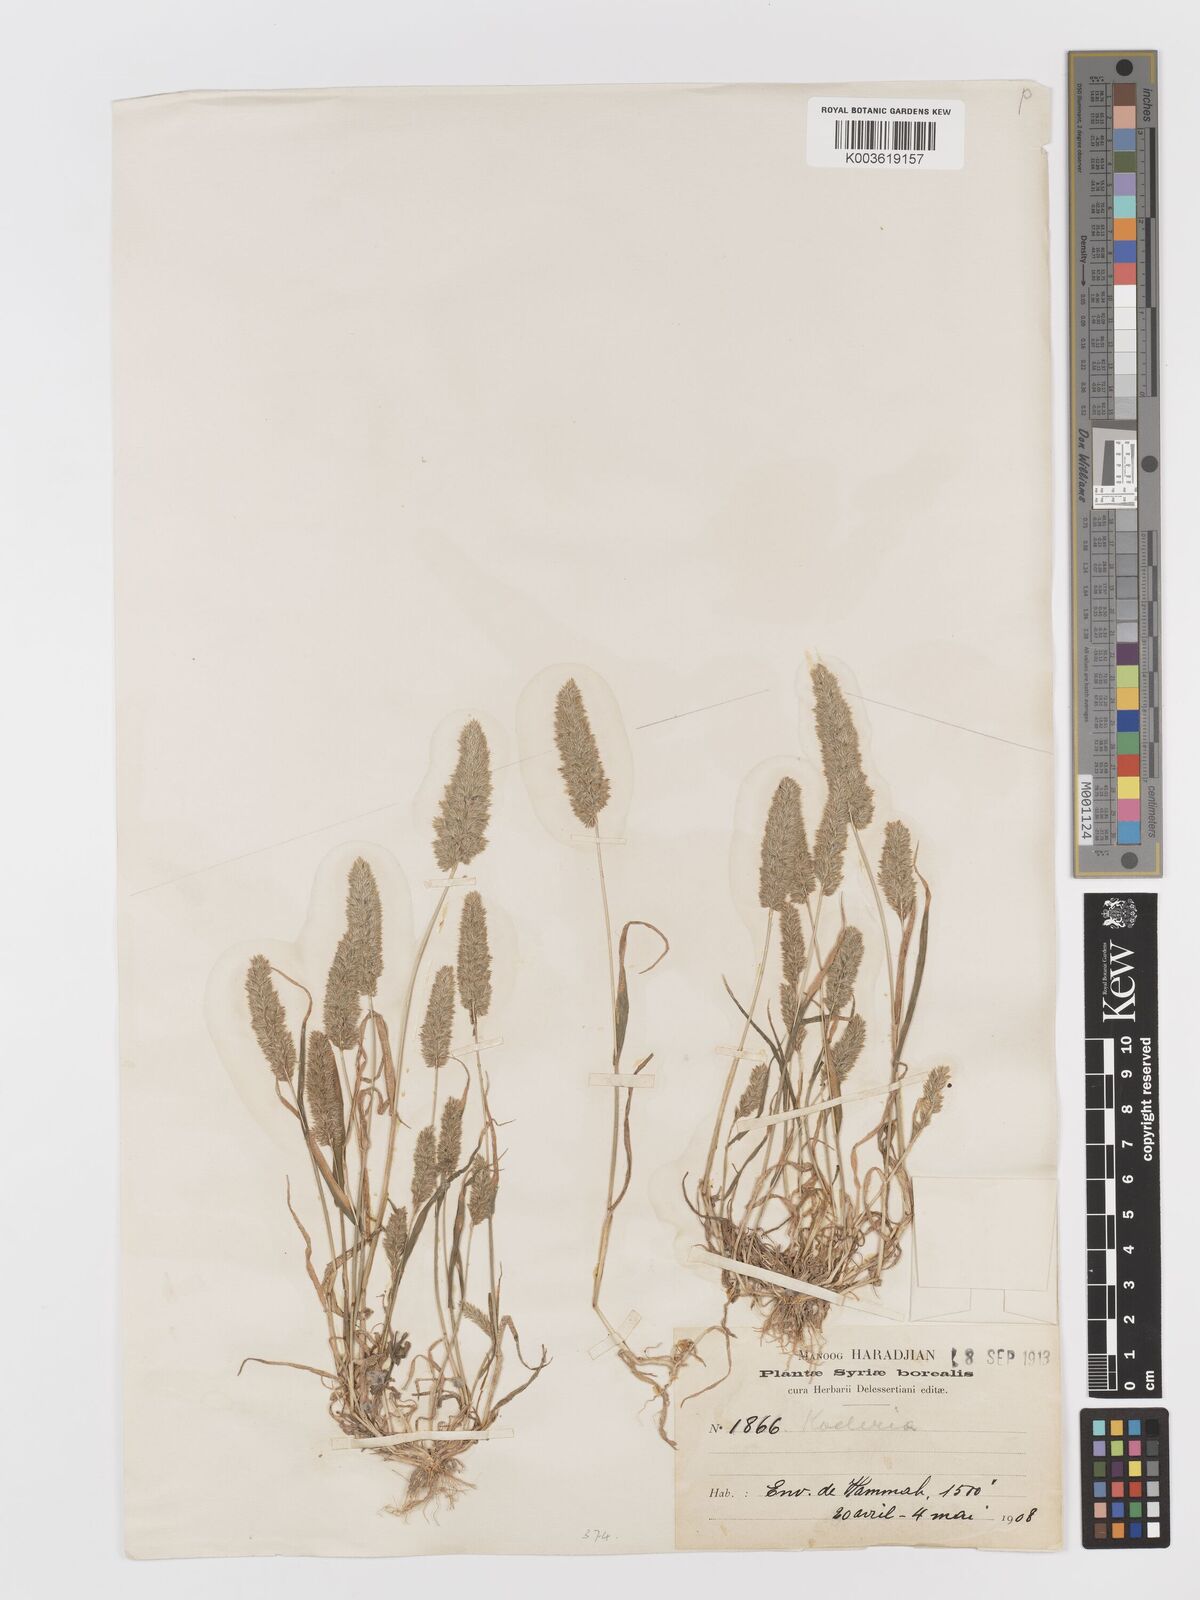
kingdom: Plantae
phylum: Tracheophyta
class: Liliopsida
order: Poales
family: Poaceae
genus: Rostraria
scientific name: Rostraria
